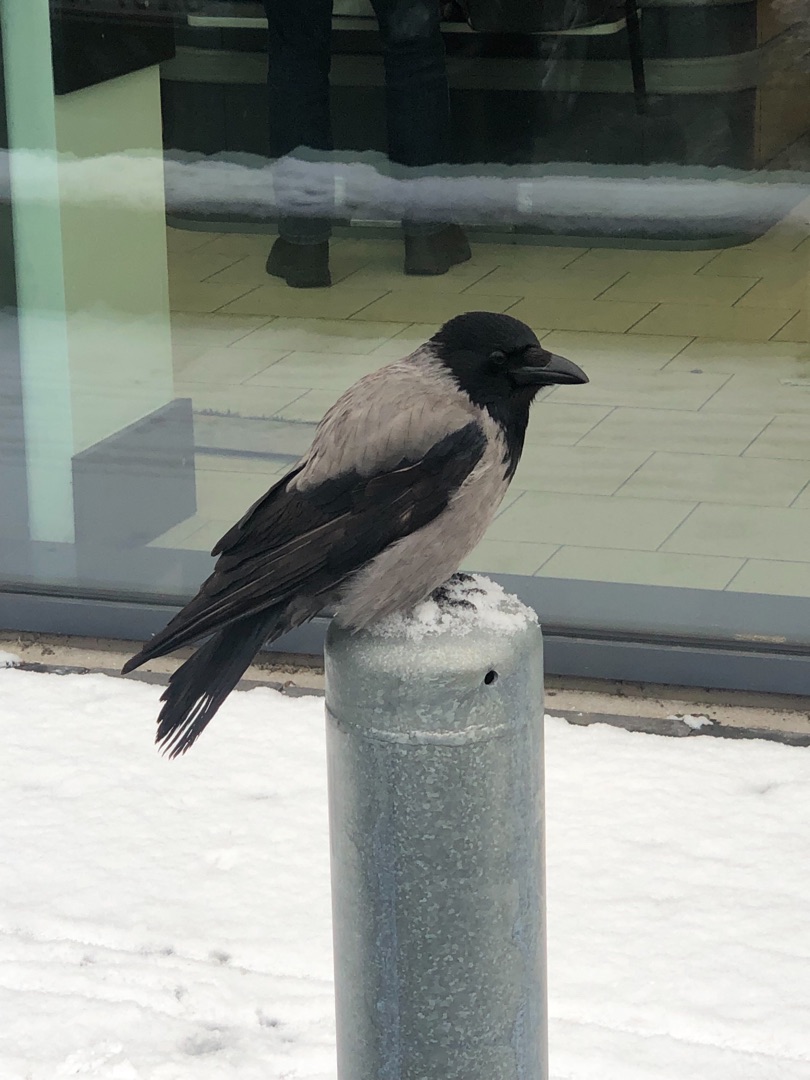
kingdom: Animalia
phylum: Chordata
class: Aves
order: Passeriformes
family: Corvidae
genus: Corvus
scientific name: Corvus cornix
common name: Gråkrage
